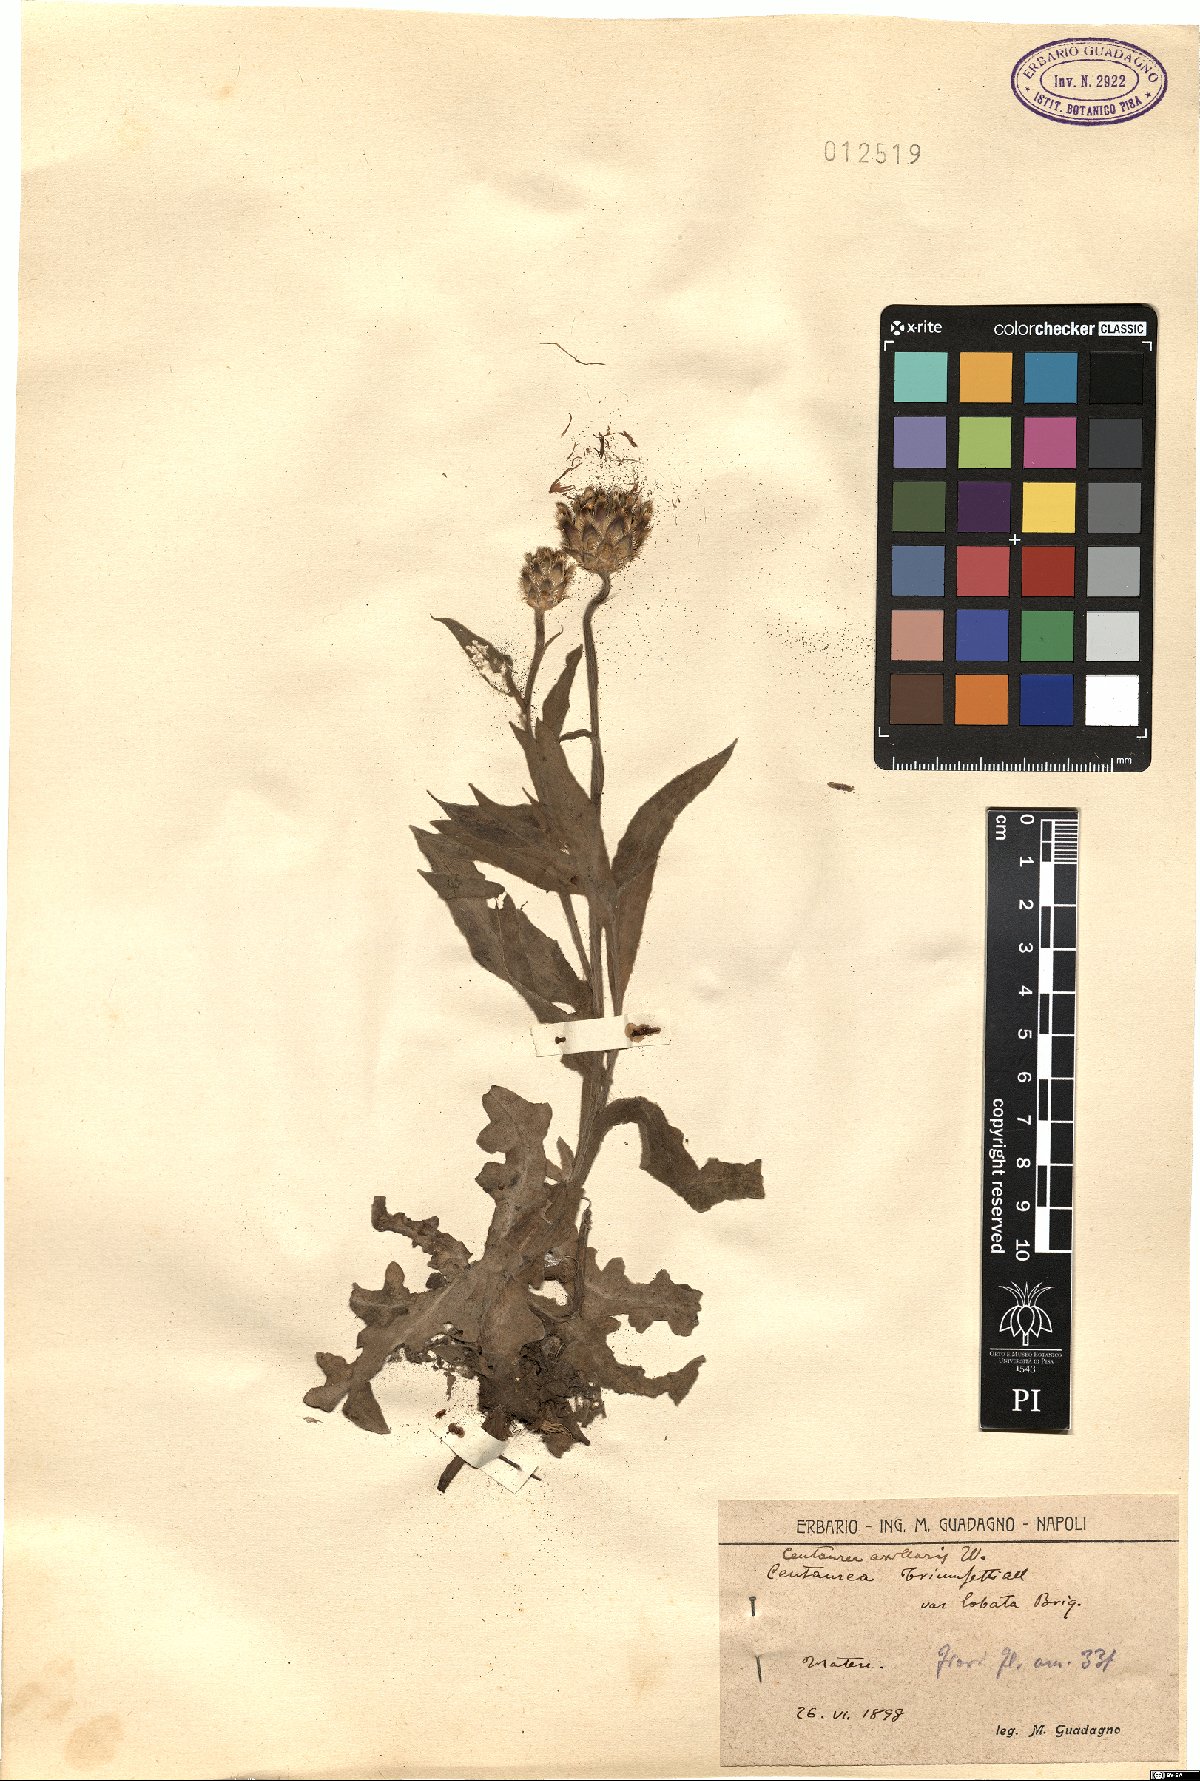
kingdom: Plantae
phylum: Tracheophyta
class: Magnoliopsida
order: Asterales
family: Asteraceae
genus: Centaurea
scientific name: Centaurea triumfettii
